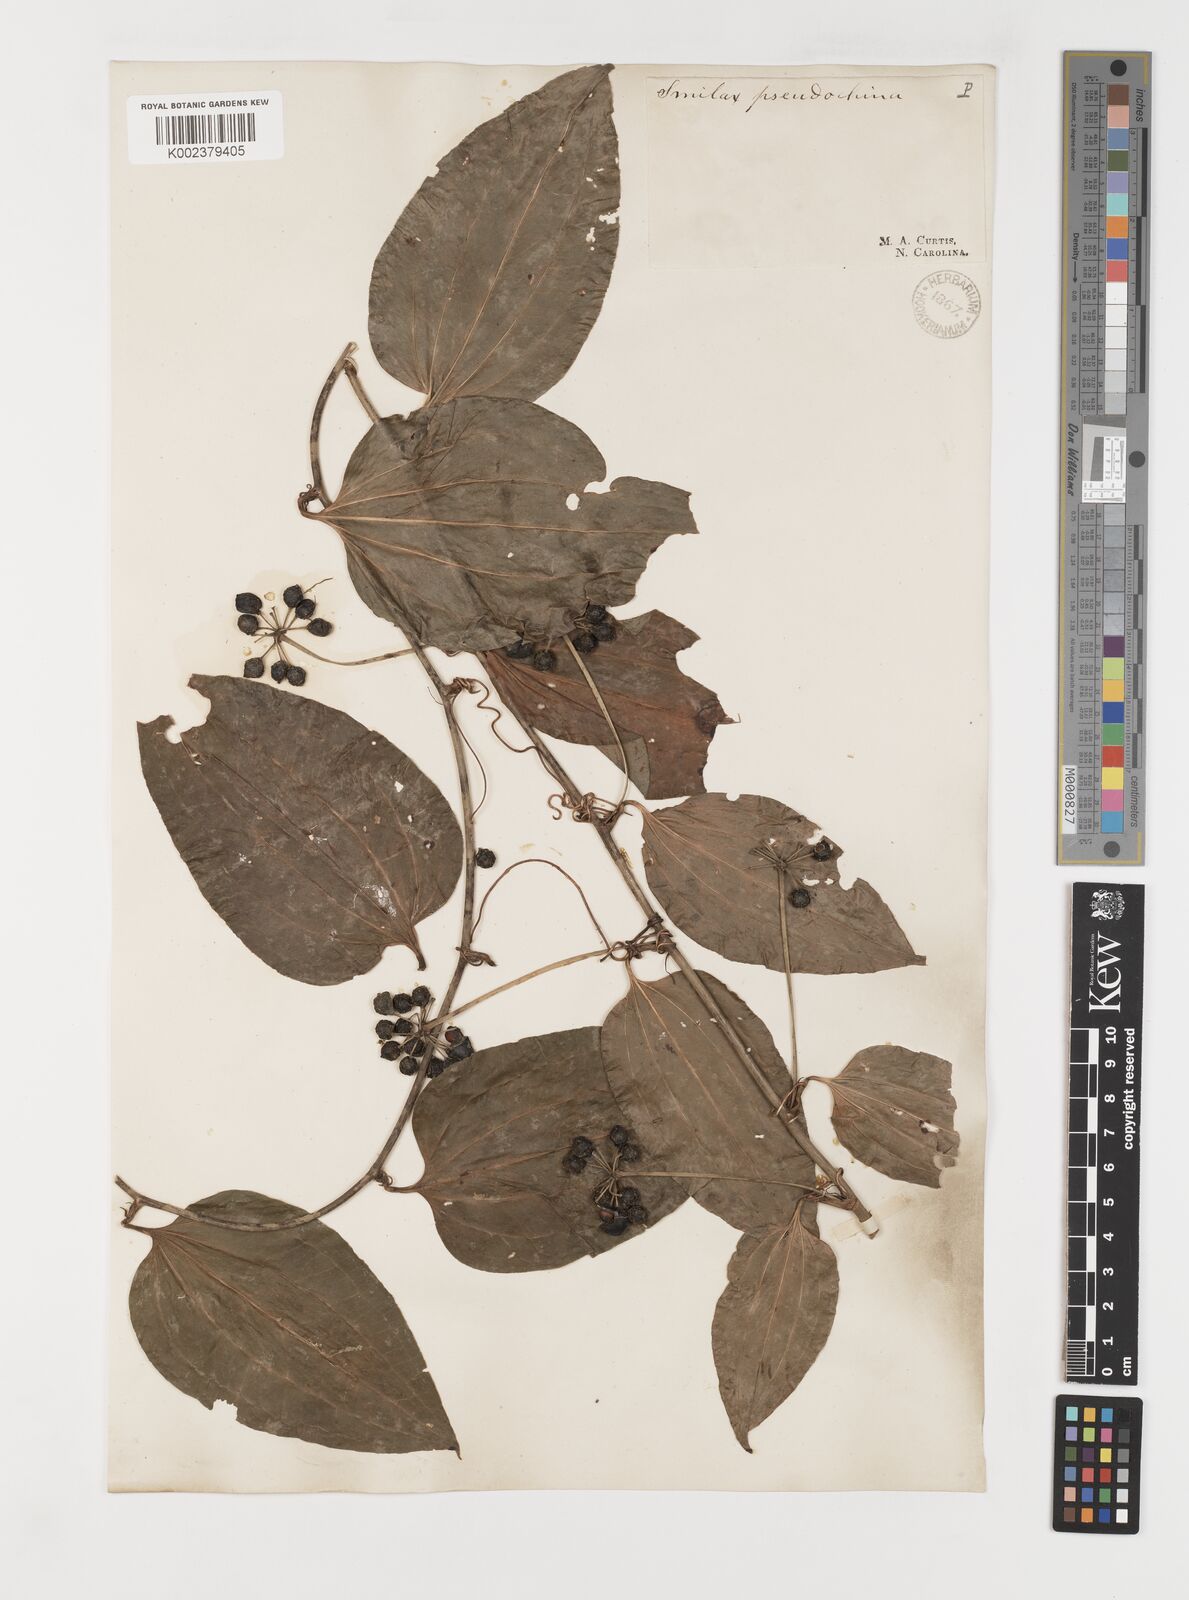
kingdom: Plantae
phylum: Tracheophyta
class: Liliopsida
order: Liliales
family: Smilacaceae
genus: Smilax
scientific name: Smilax pseudochina
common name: False chinaroot
